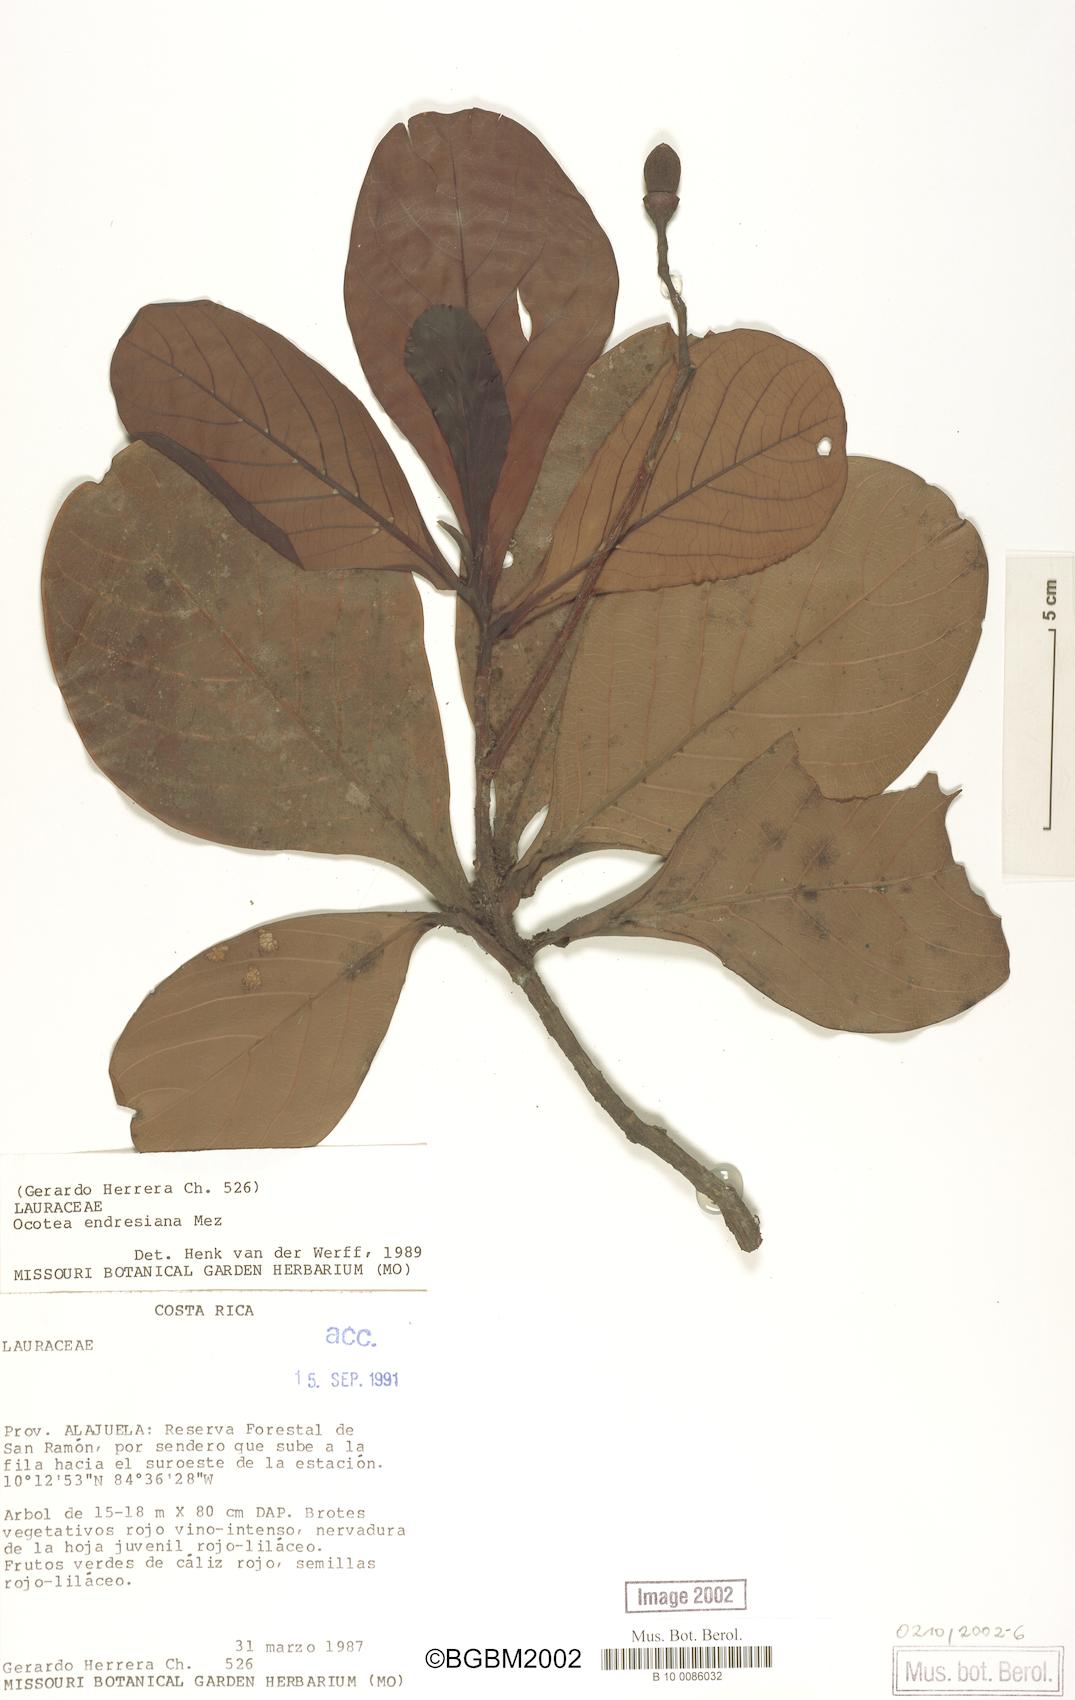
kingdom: Plantae
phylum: Tracheophyta
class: Magnoliopsida
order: Laurales
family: Lauraceae
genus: Ocotea
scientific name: Ocotea endresiana
